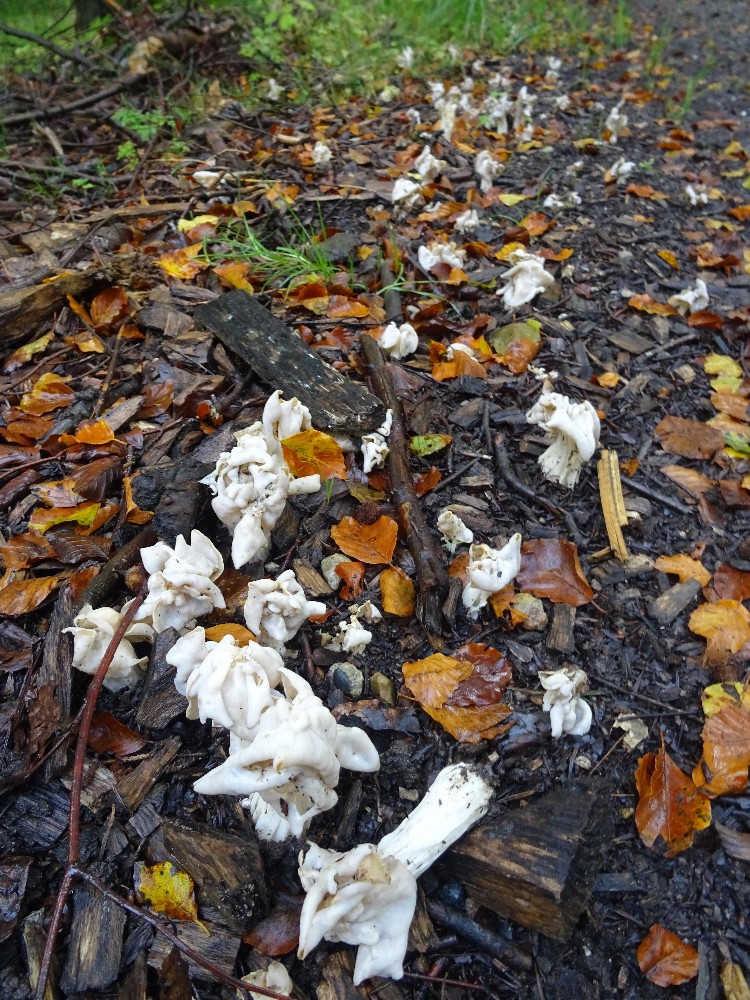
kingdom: Fungi
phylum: Ascomycota
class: Pezizomycetes
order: Pezizales
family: Helvellaceae
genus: Helvella
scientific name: Helvella crispa
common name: kruset foldhat
